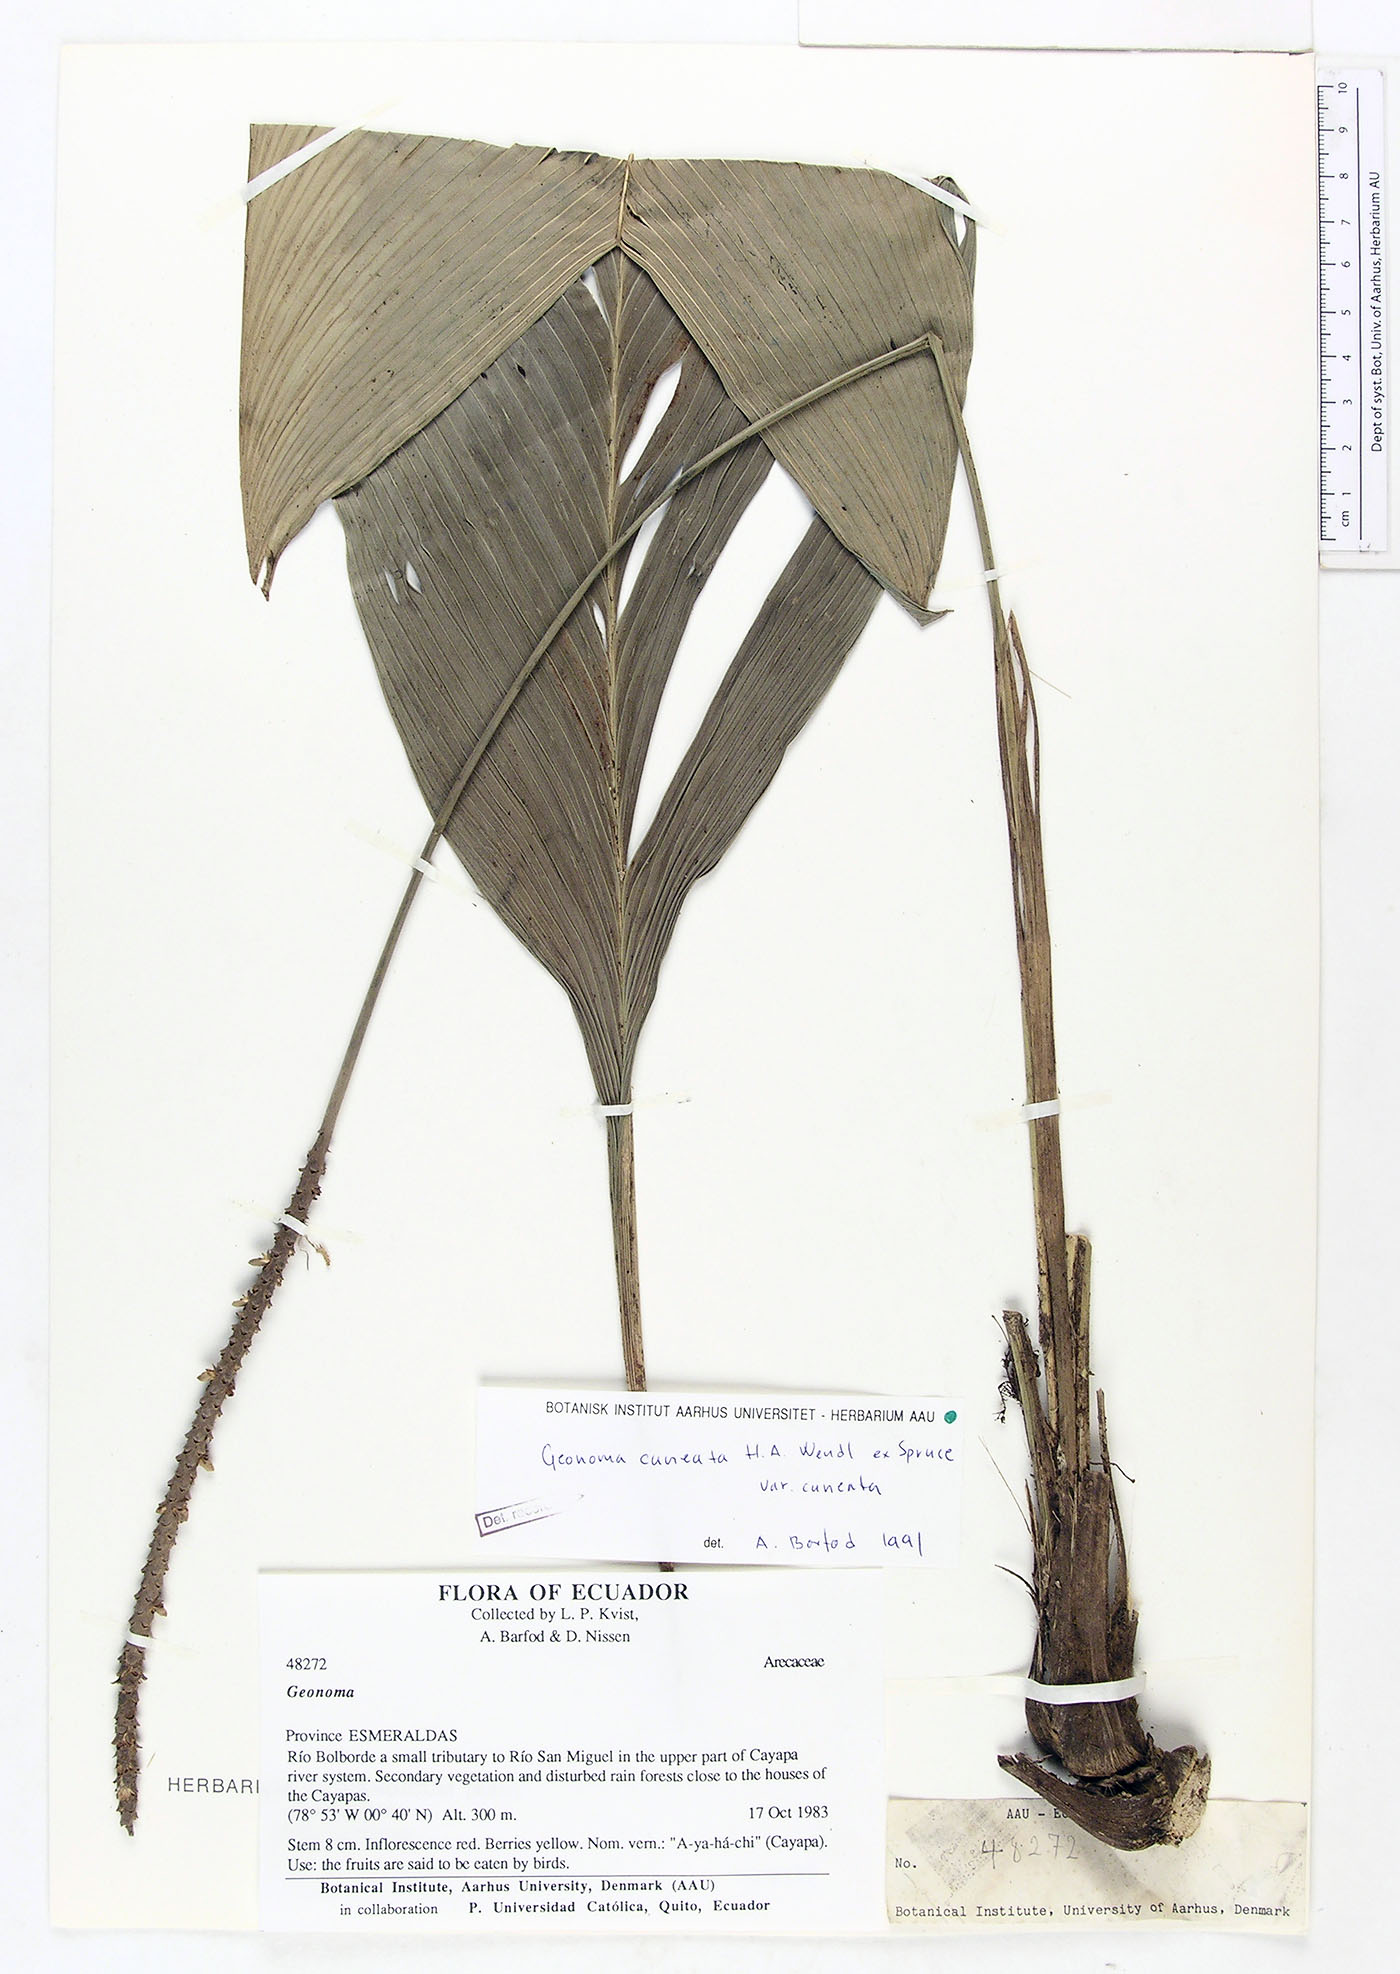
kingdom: Plantae
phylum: Tracheophyta
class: Liliopsida
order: Arecales
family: Arecaceae
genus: Geonoma
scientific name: Geonoma cuneata
